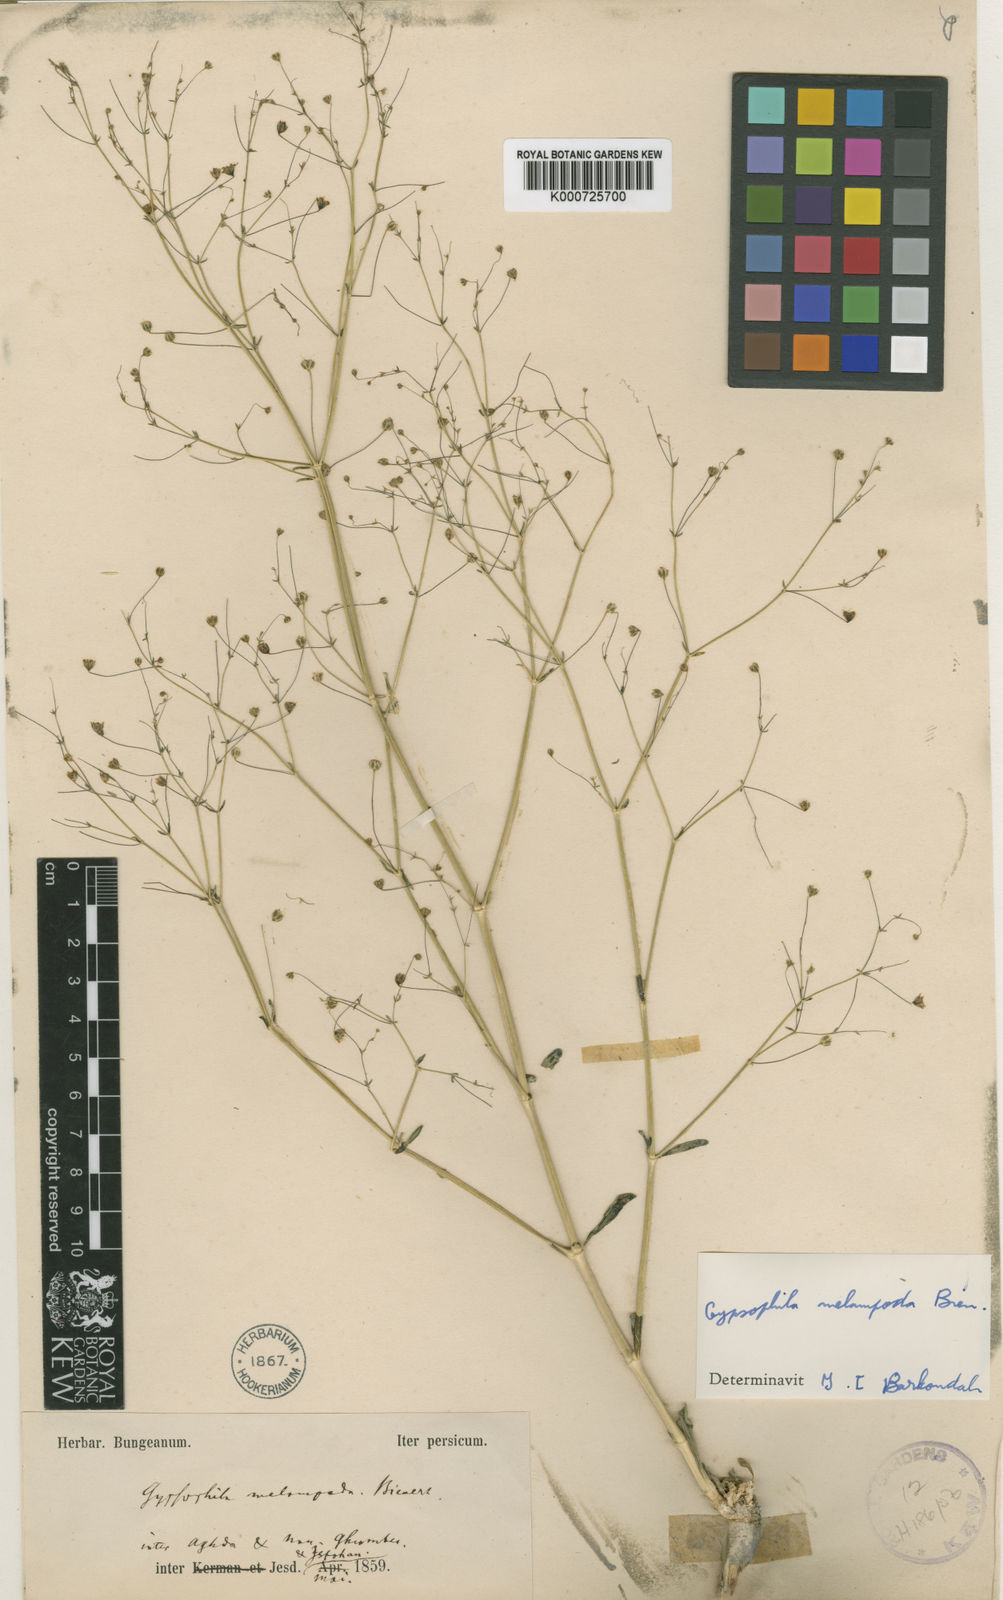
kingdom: Plantae
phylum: Tracheophyta
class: Magnoliopsida
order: Caryophyllales
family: Caryophyllaceae
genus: Gypsophila
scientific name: Gypsophila melampoda
